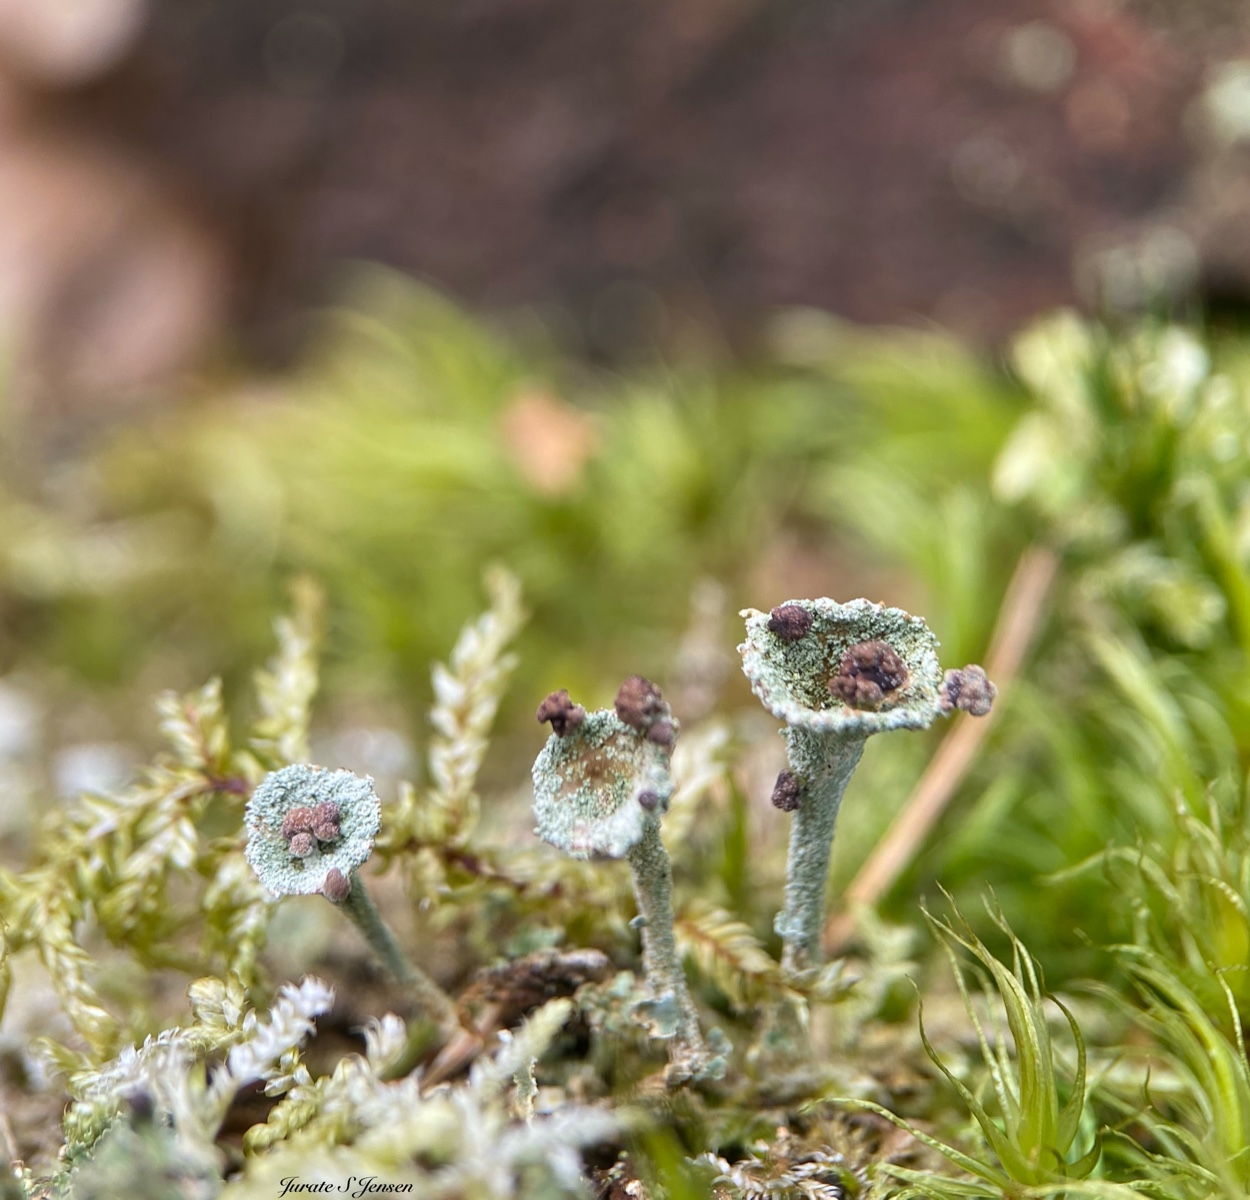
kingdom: Fungi
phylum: Ascomycota
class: Lecanoromycetes
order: Lecanorales
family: Cladoniaceae
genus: Cladonia
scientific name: Cladonia
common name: brungrøn bægerlav
